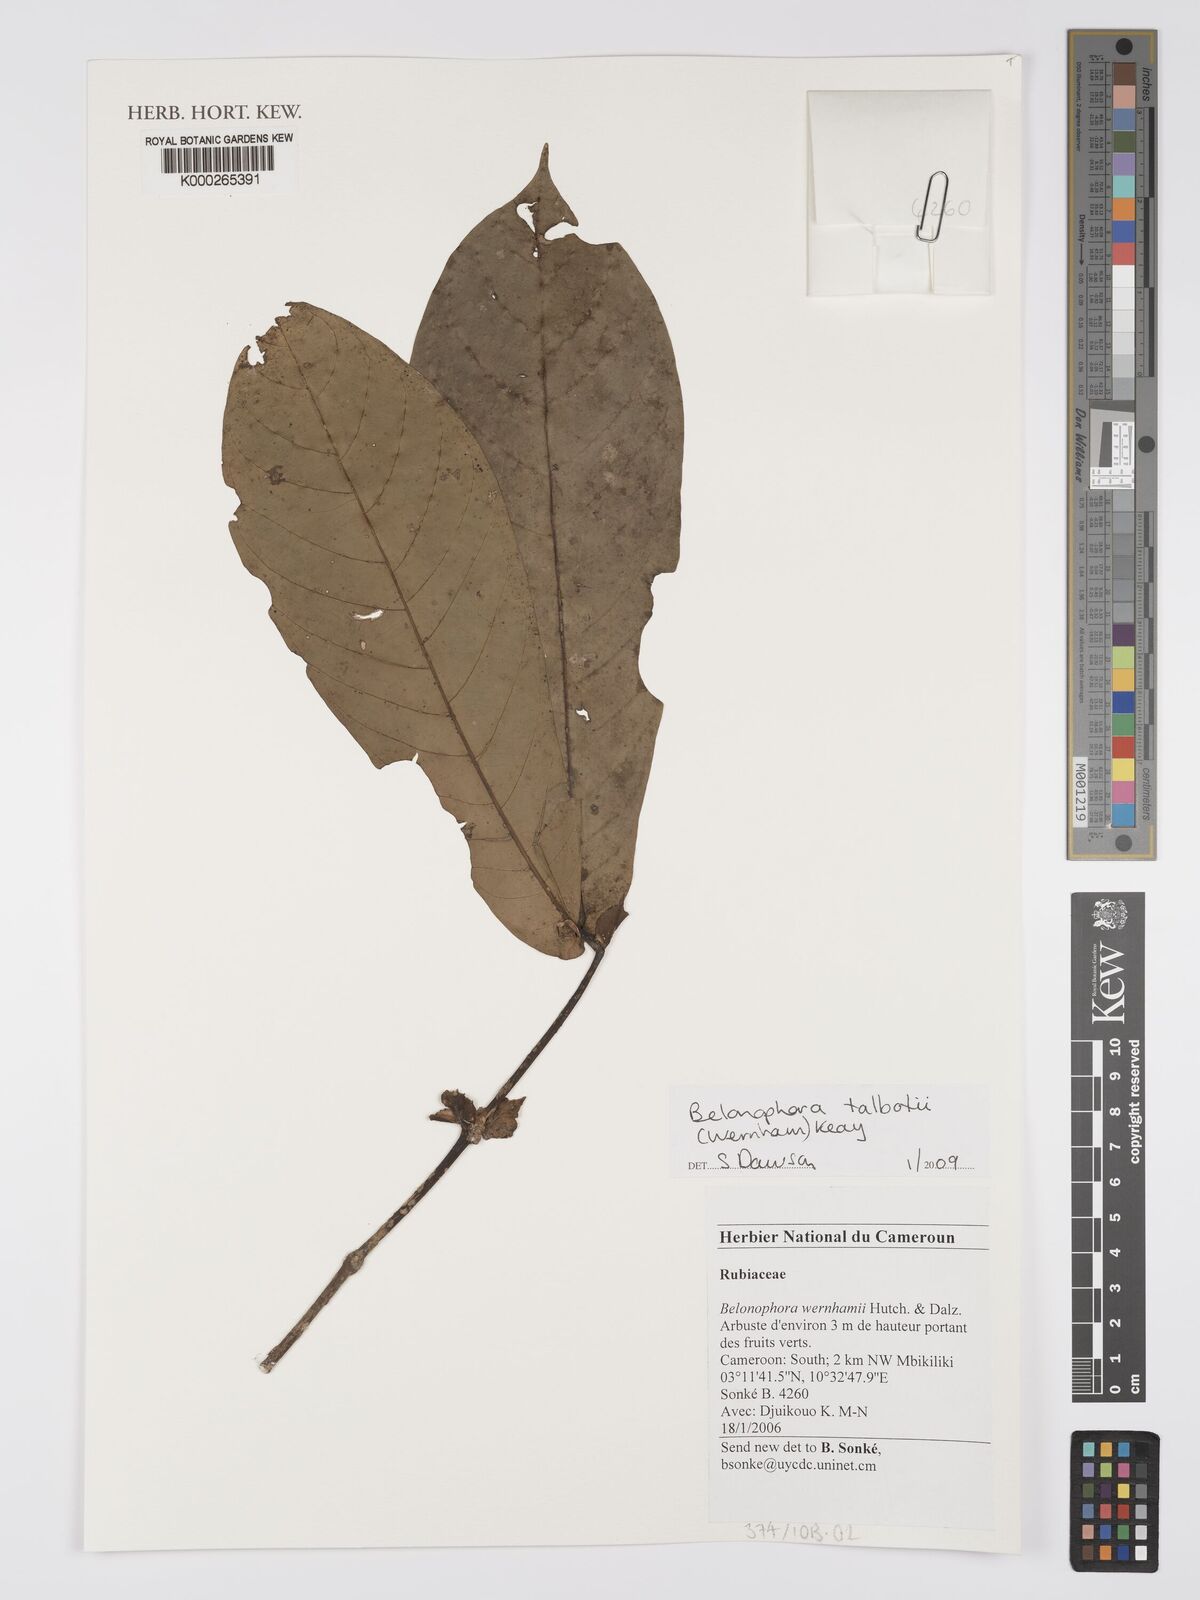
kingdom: Plantae
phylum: Tracheophyta
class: Magnoliopsida
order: Gentianales
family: Rubiaceae
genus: Belonophora
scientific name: Belonophora talbotii
